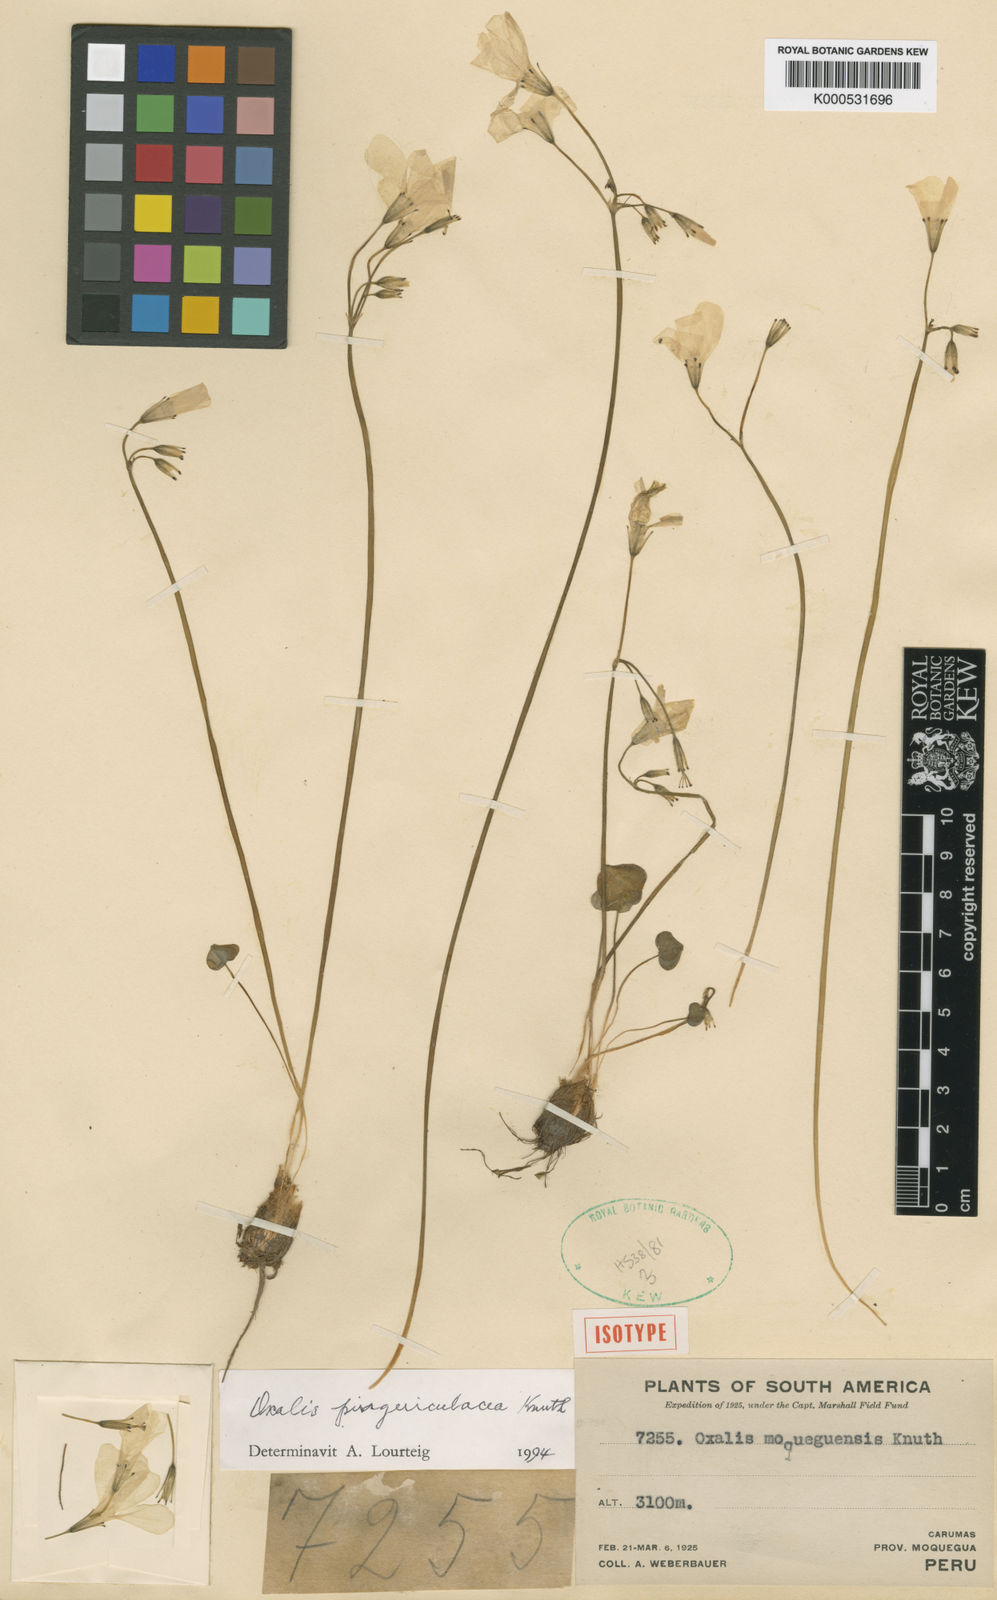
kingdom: Plantae
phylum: Tracheophyta
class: Magnoliopsida
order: Oxalidales
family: Oxalidaceae
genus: Oxalis
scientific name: Oxalis latifolia
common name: Garden pink-sorrel
